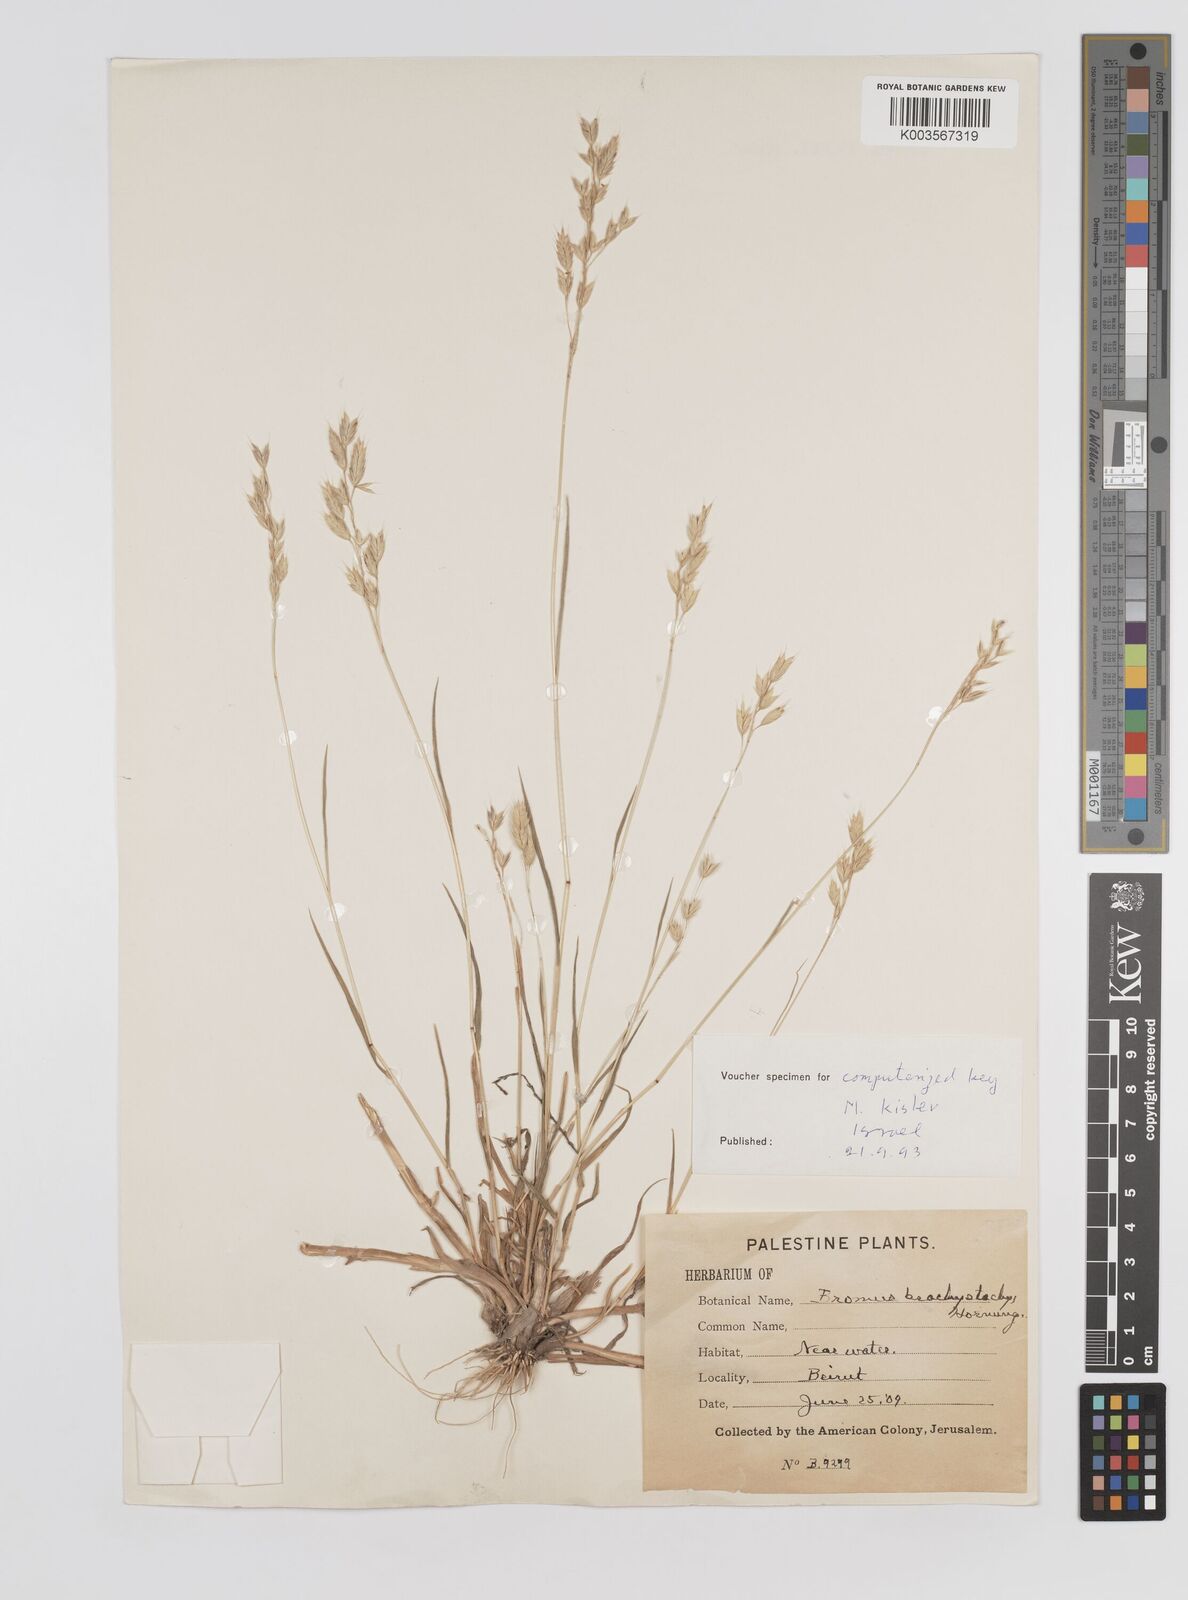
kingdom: Plantae
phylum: Tracheophyta
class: Liliopsida
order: Poales
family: Poaceae
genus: Bromus
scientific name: Bromus pseudobrachystachys
